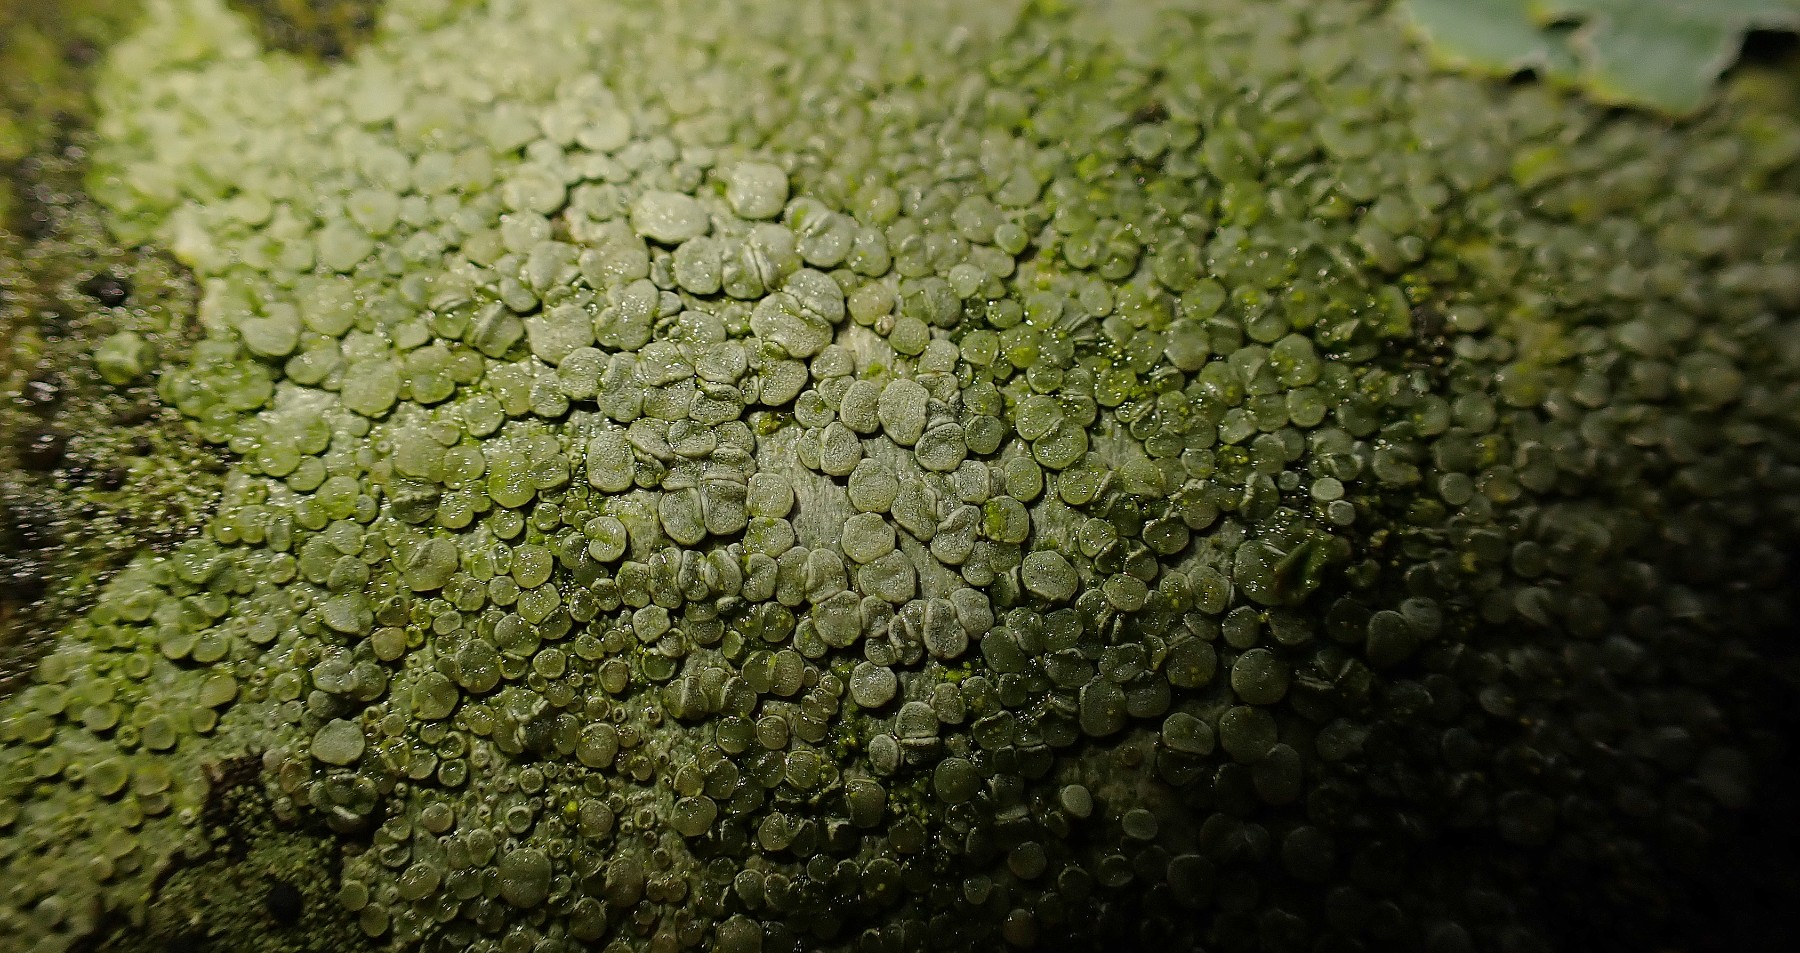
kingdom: Fungi
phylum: Ascomycota
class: Lecanoromycetes
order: Lecanorales
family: Lecanoraceae
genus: Glaucomaria
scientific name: Glaucomaria carpinea
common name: hviddugget kantskivelav
